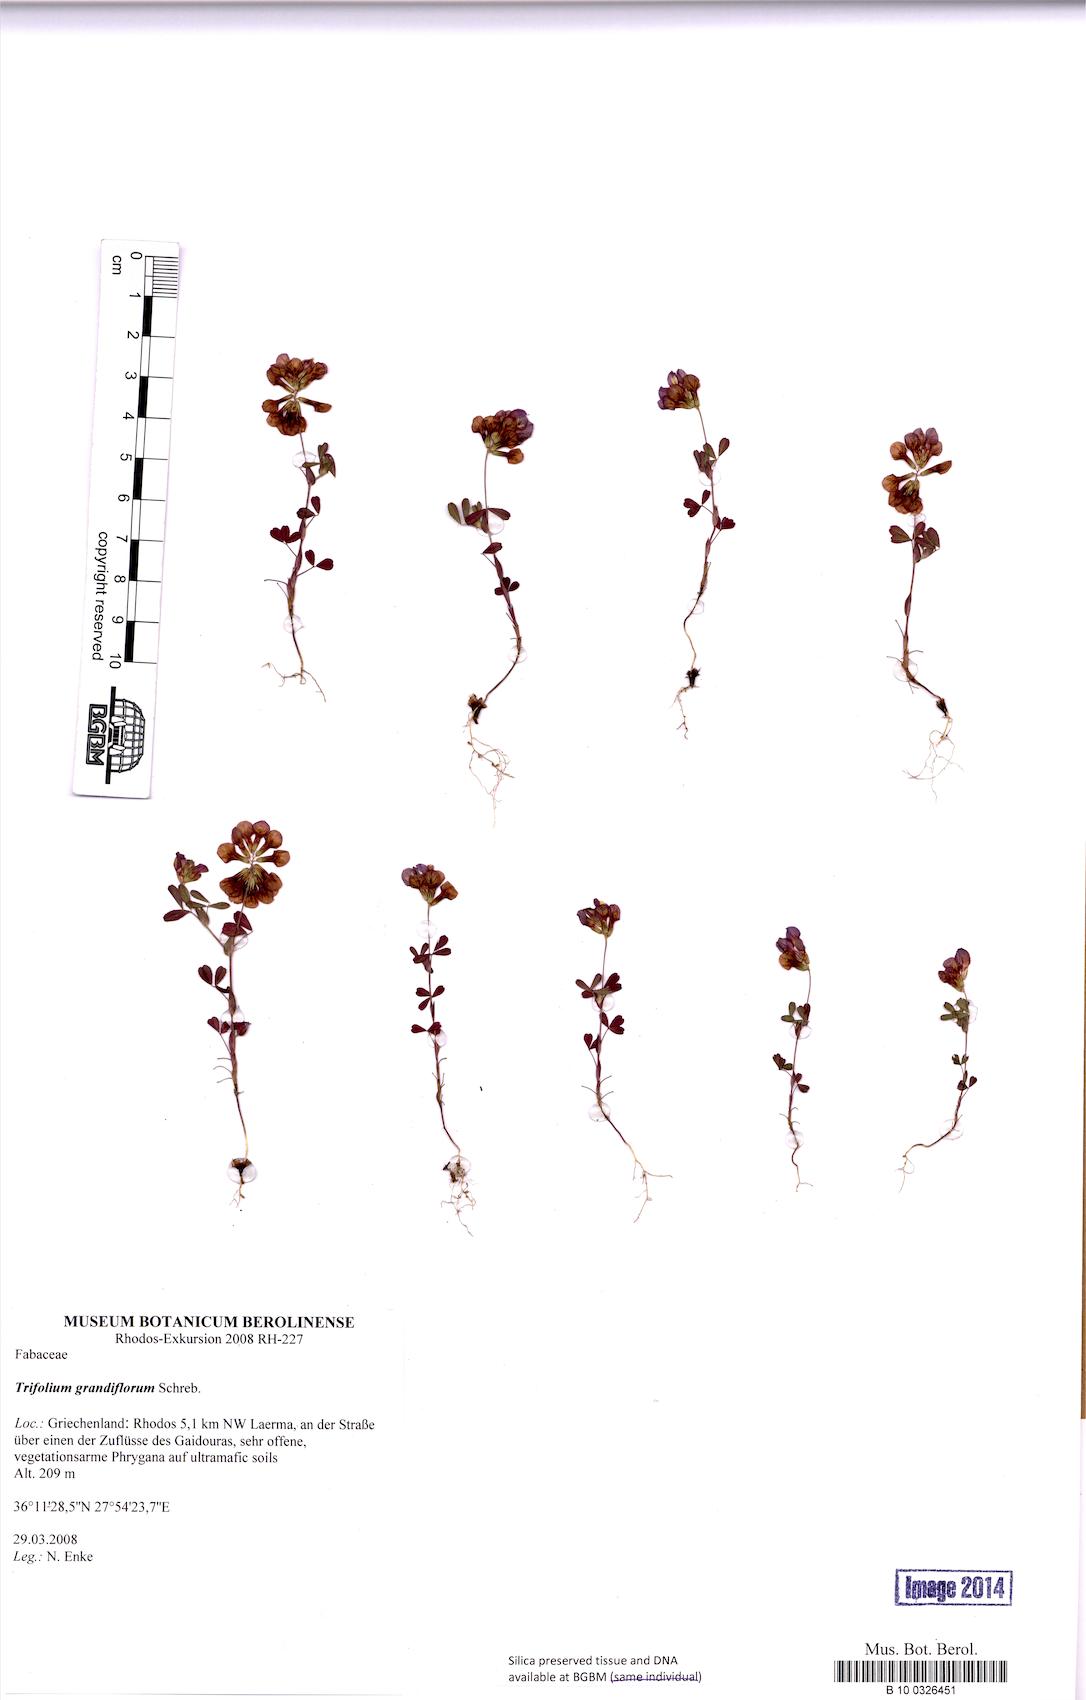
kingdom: Plantae
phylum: Tracheophyta
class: Magnoliopsida
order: Fabales
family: Fabaceae
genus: Trifolium
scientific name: Trifolium grandiflorum
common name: Large-flower hop clover
